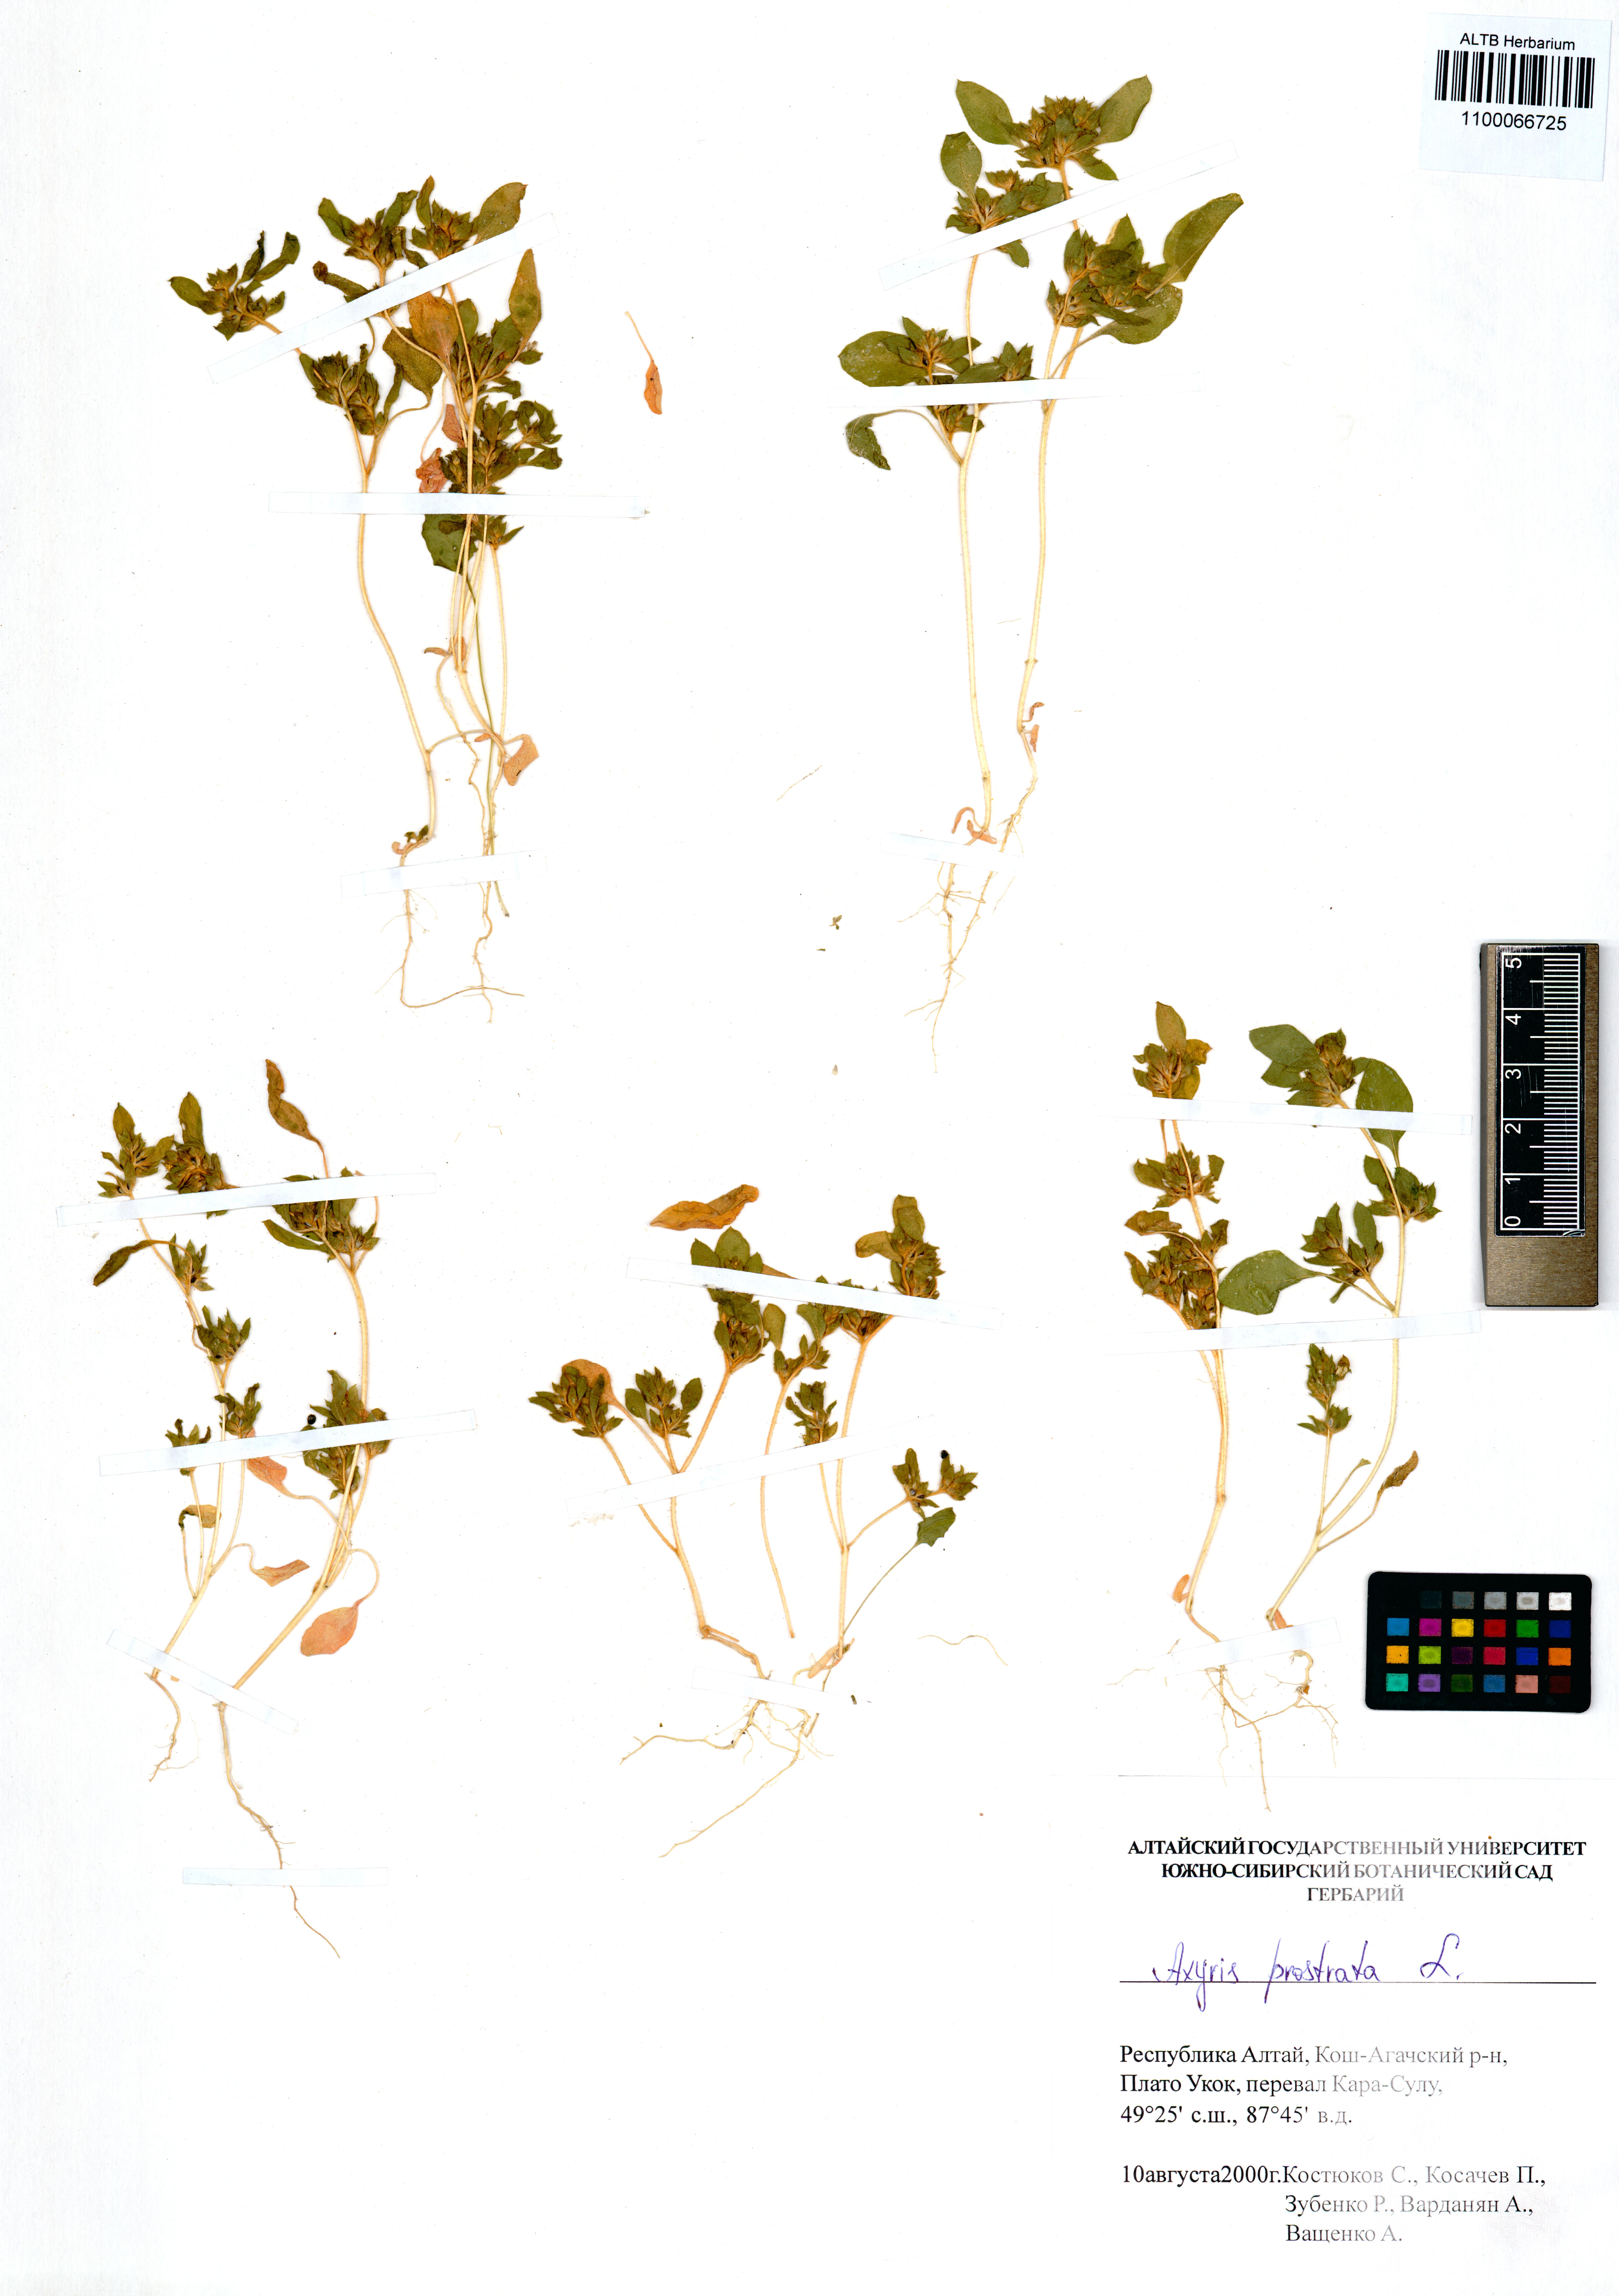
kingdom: Plantae
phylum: Tracheophyta
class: Magnoliopsida
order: Caryophyllales
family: Amaranthaceae
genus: Axyris
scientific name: Axyris prostrata
